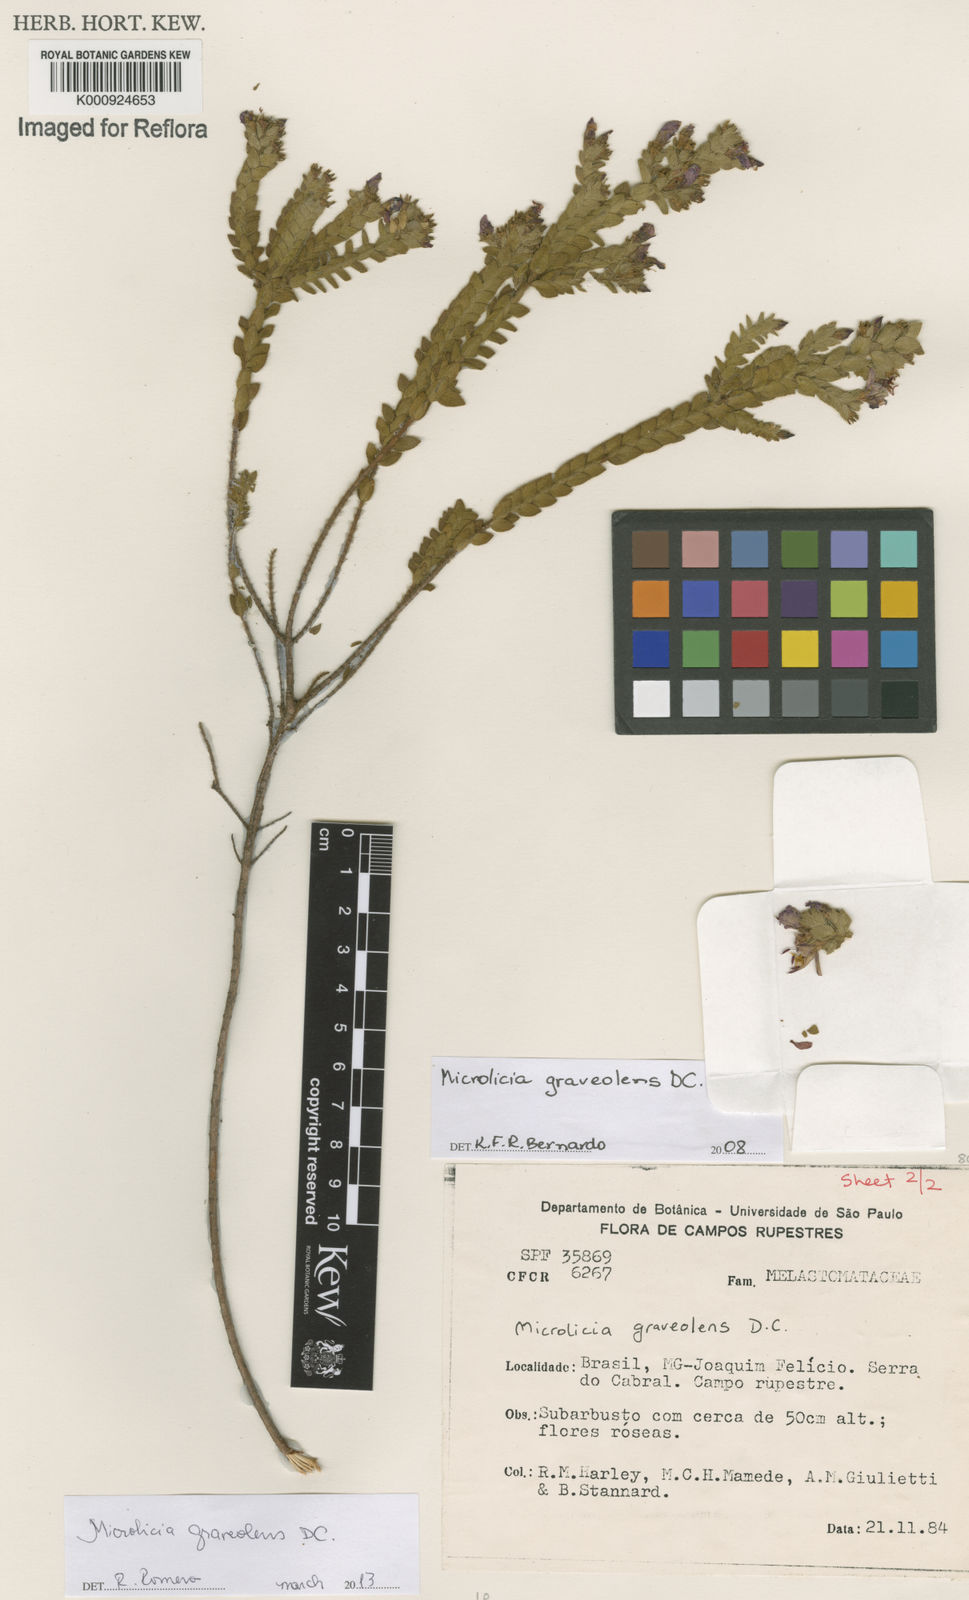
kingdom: Plantae
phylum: Tracheophyta
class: Magnoliopsida
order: Myrtales
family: Melastomataceae
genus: Microlicia
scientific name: Microlicia graveolens
